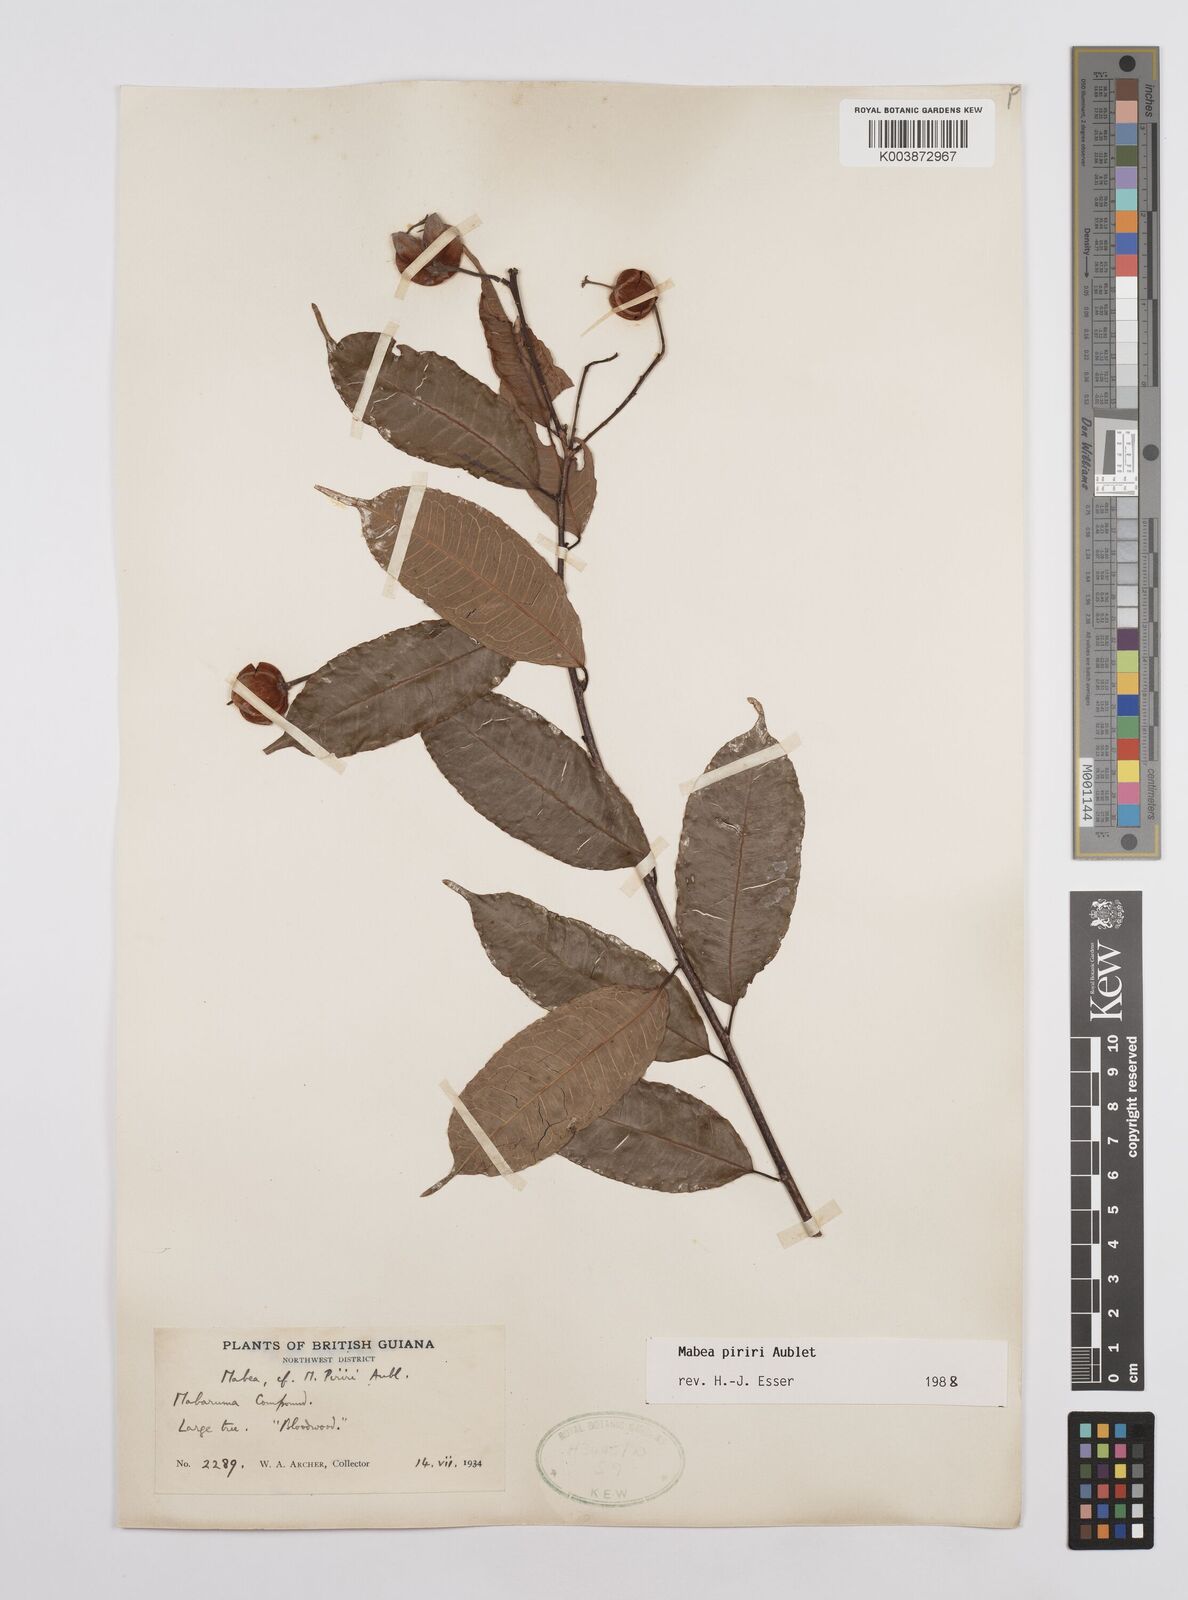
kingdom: Plantae
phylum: Tracheophyta
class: Magnoliopsida
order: Malpighiales
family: Euphorbiaceae
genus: Mabea
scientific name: Mabea piriri
